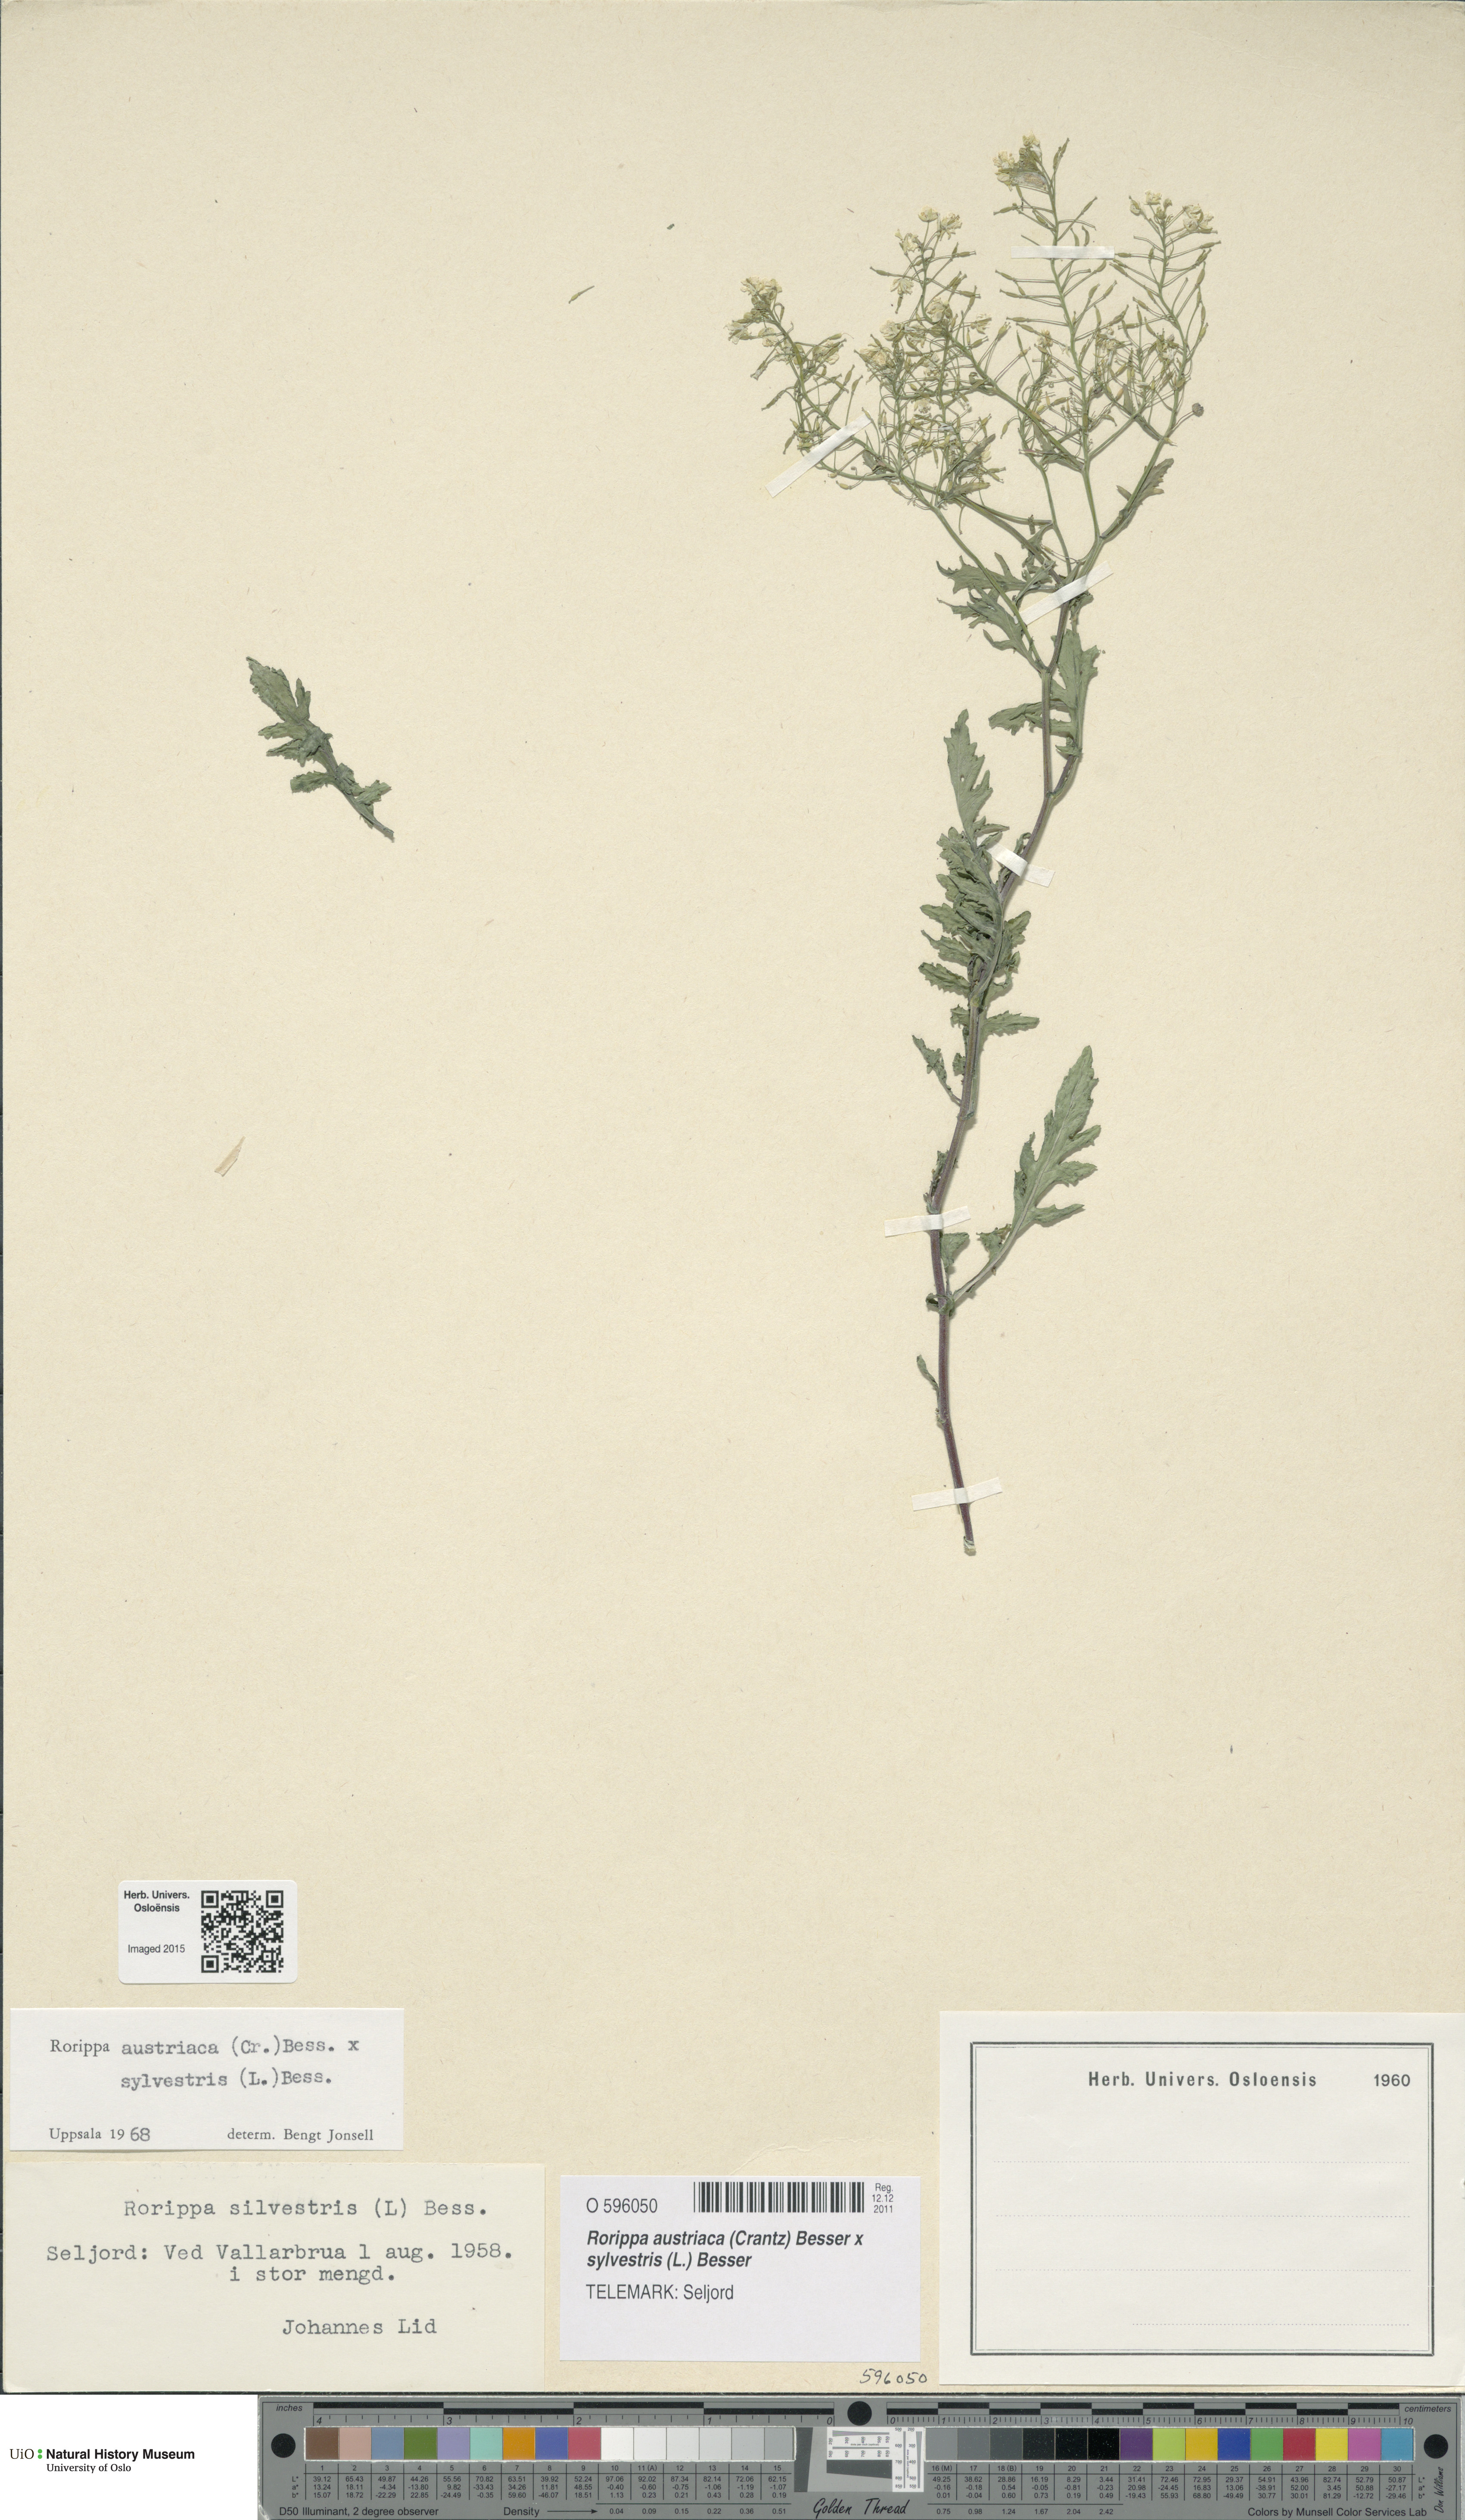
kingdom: Plantae
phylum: Tracheophyta
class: Magnoliopsida
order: Brassicales
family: Brassicaceae
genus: Rorippa
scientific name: Rorippa
